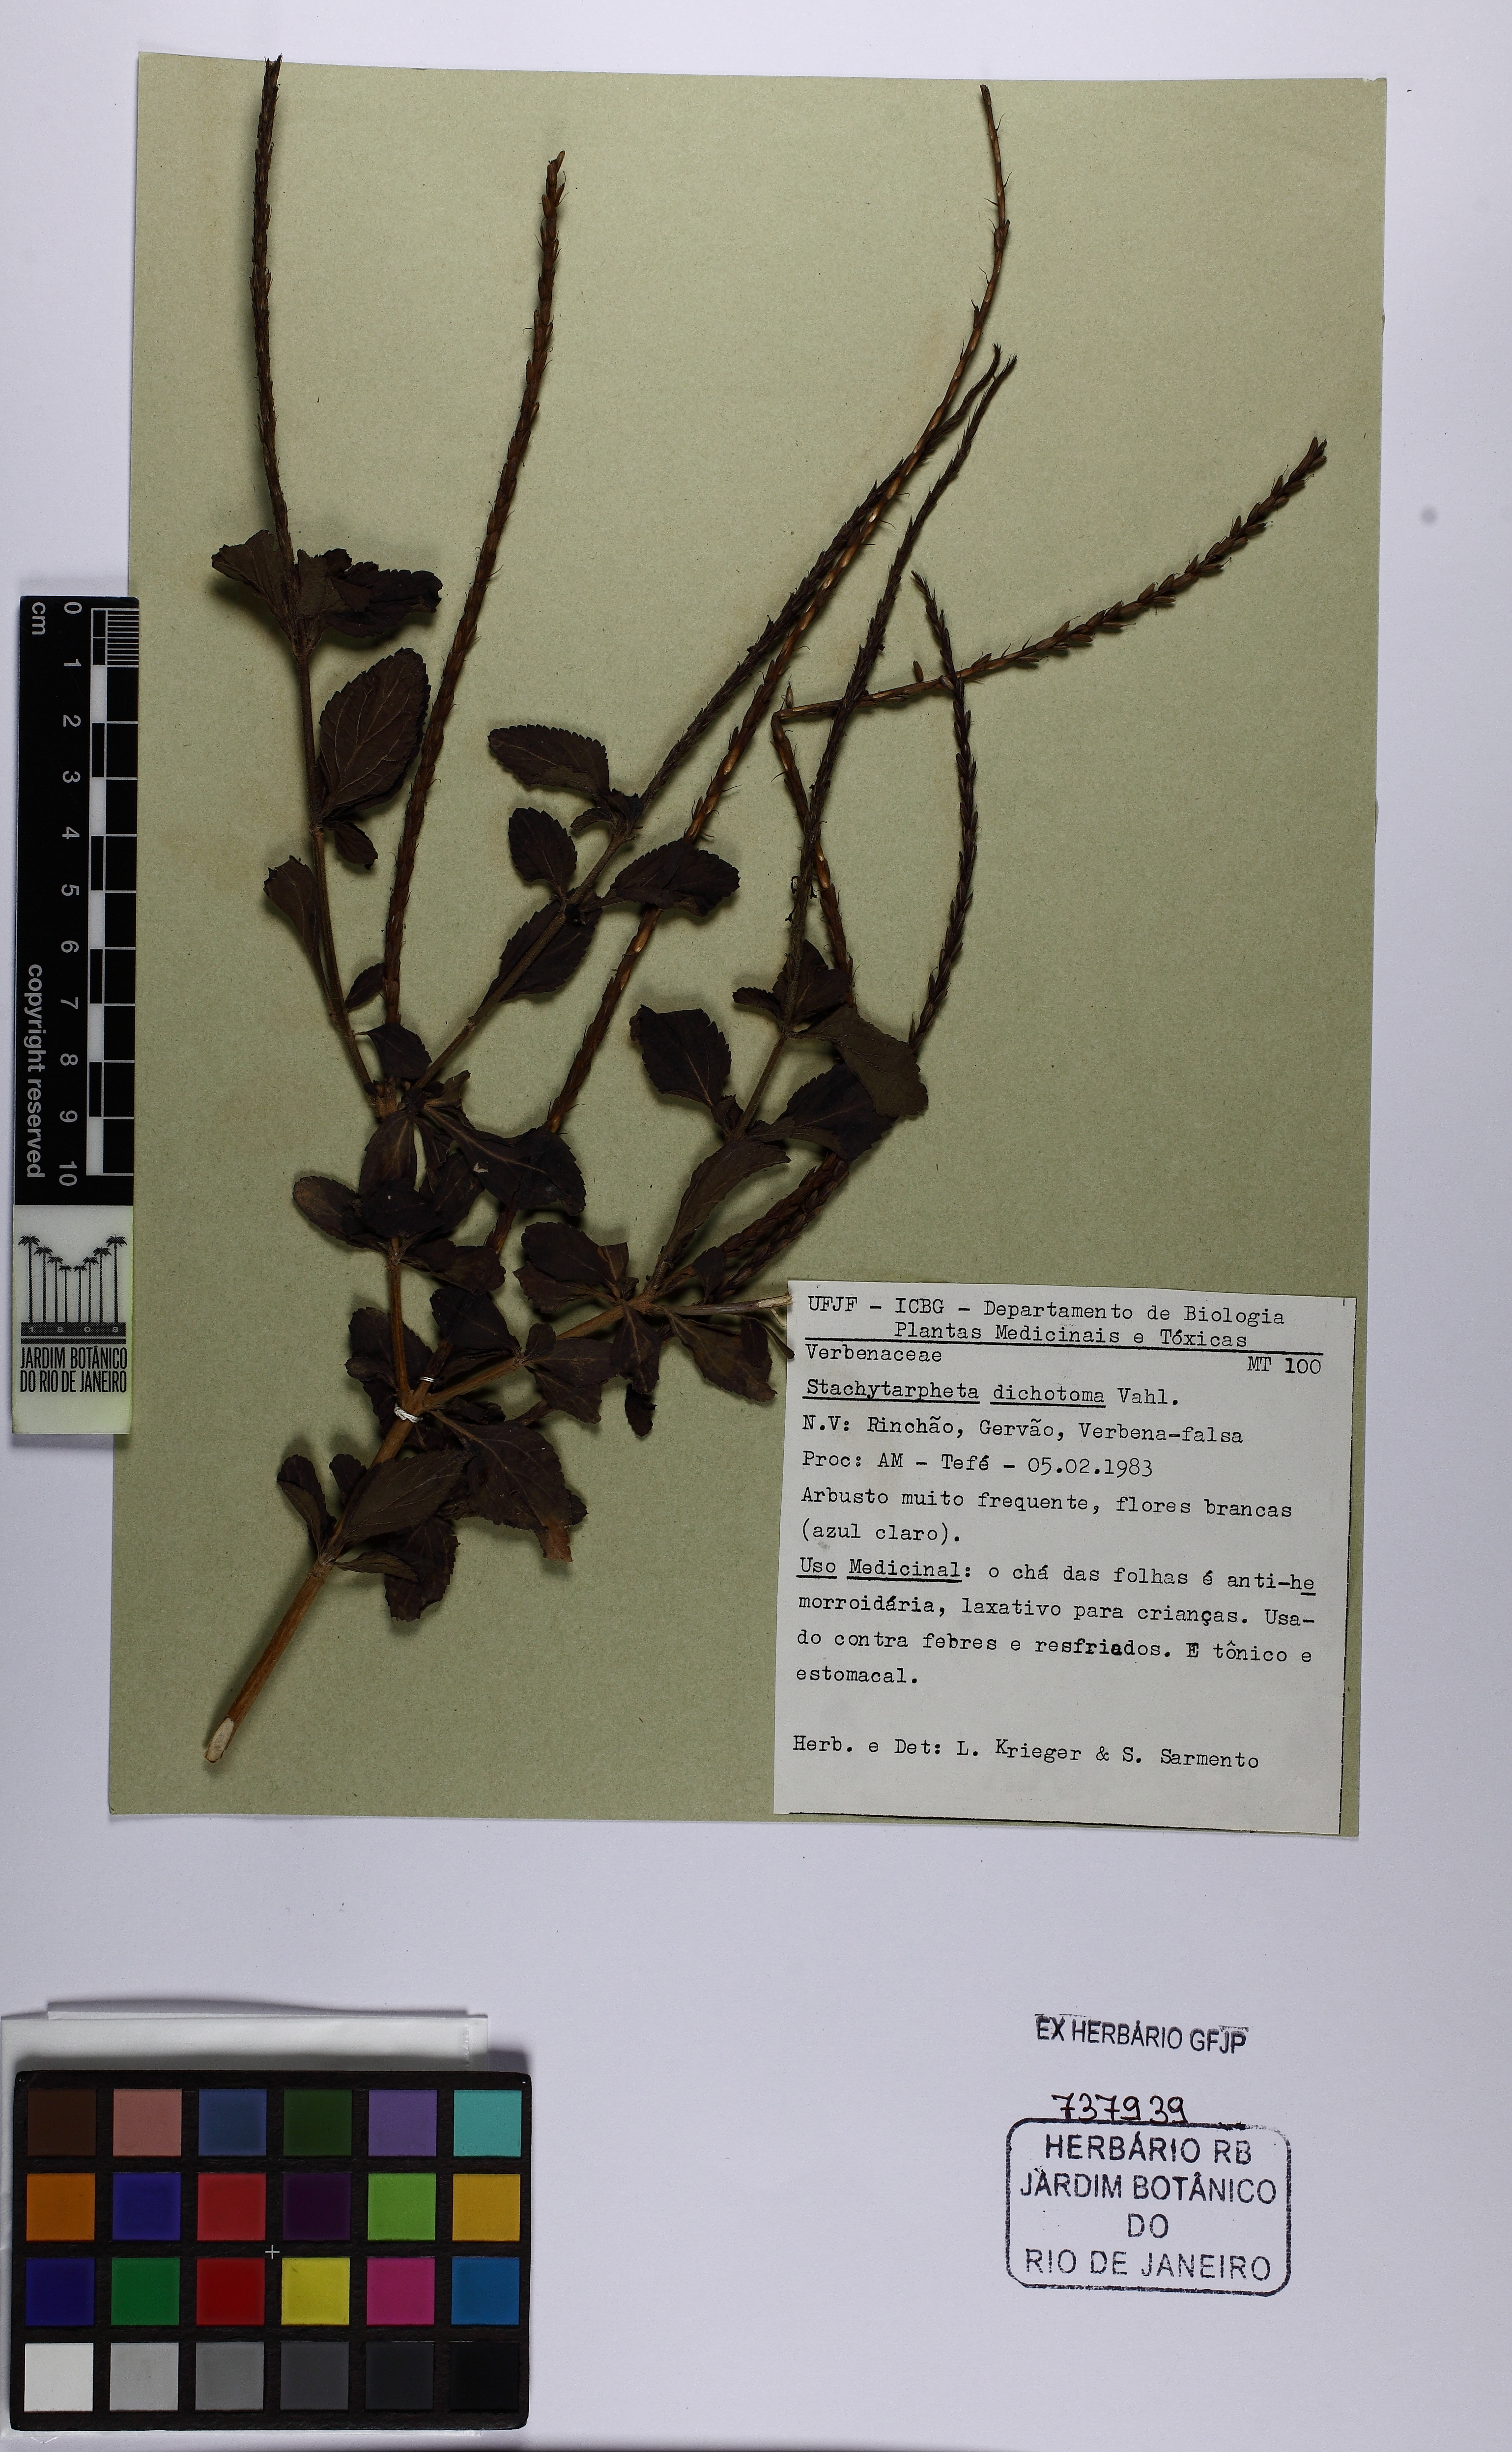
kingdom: Plantae
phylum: Tracheophyta
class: Magnoliopsida
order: Lamiales
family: Verbenaceae
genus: Stachytarpheta
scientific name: Stachytarpheta cayennensis
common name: Cayenne porterweed
